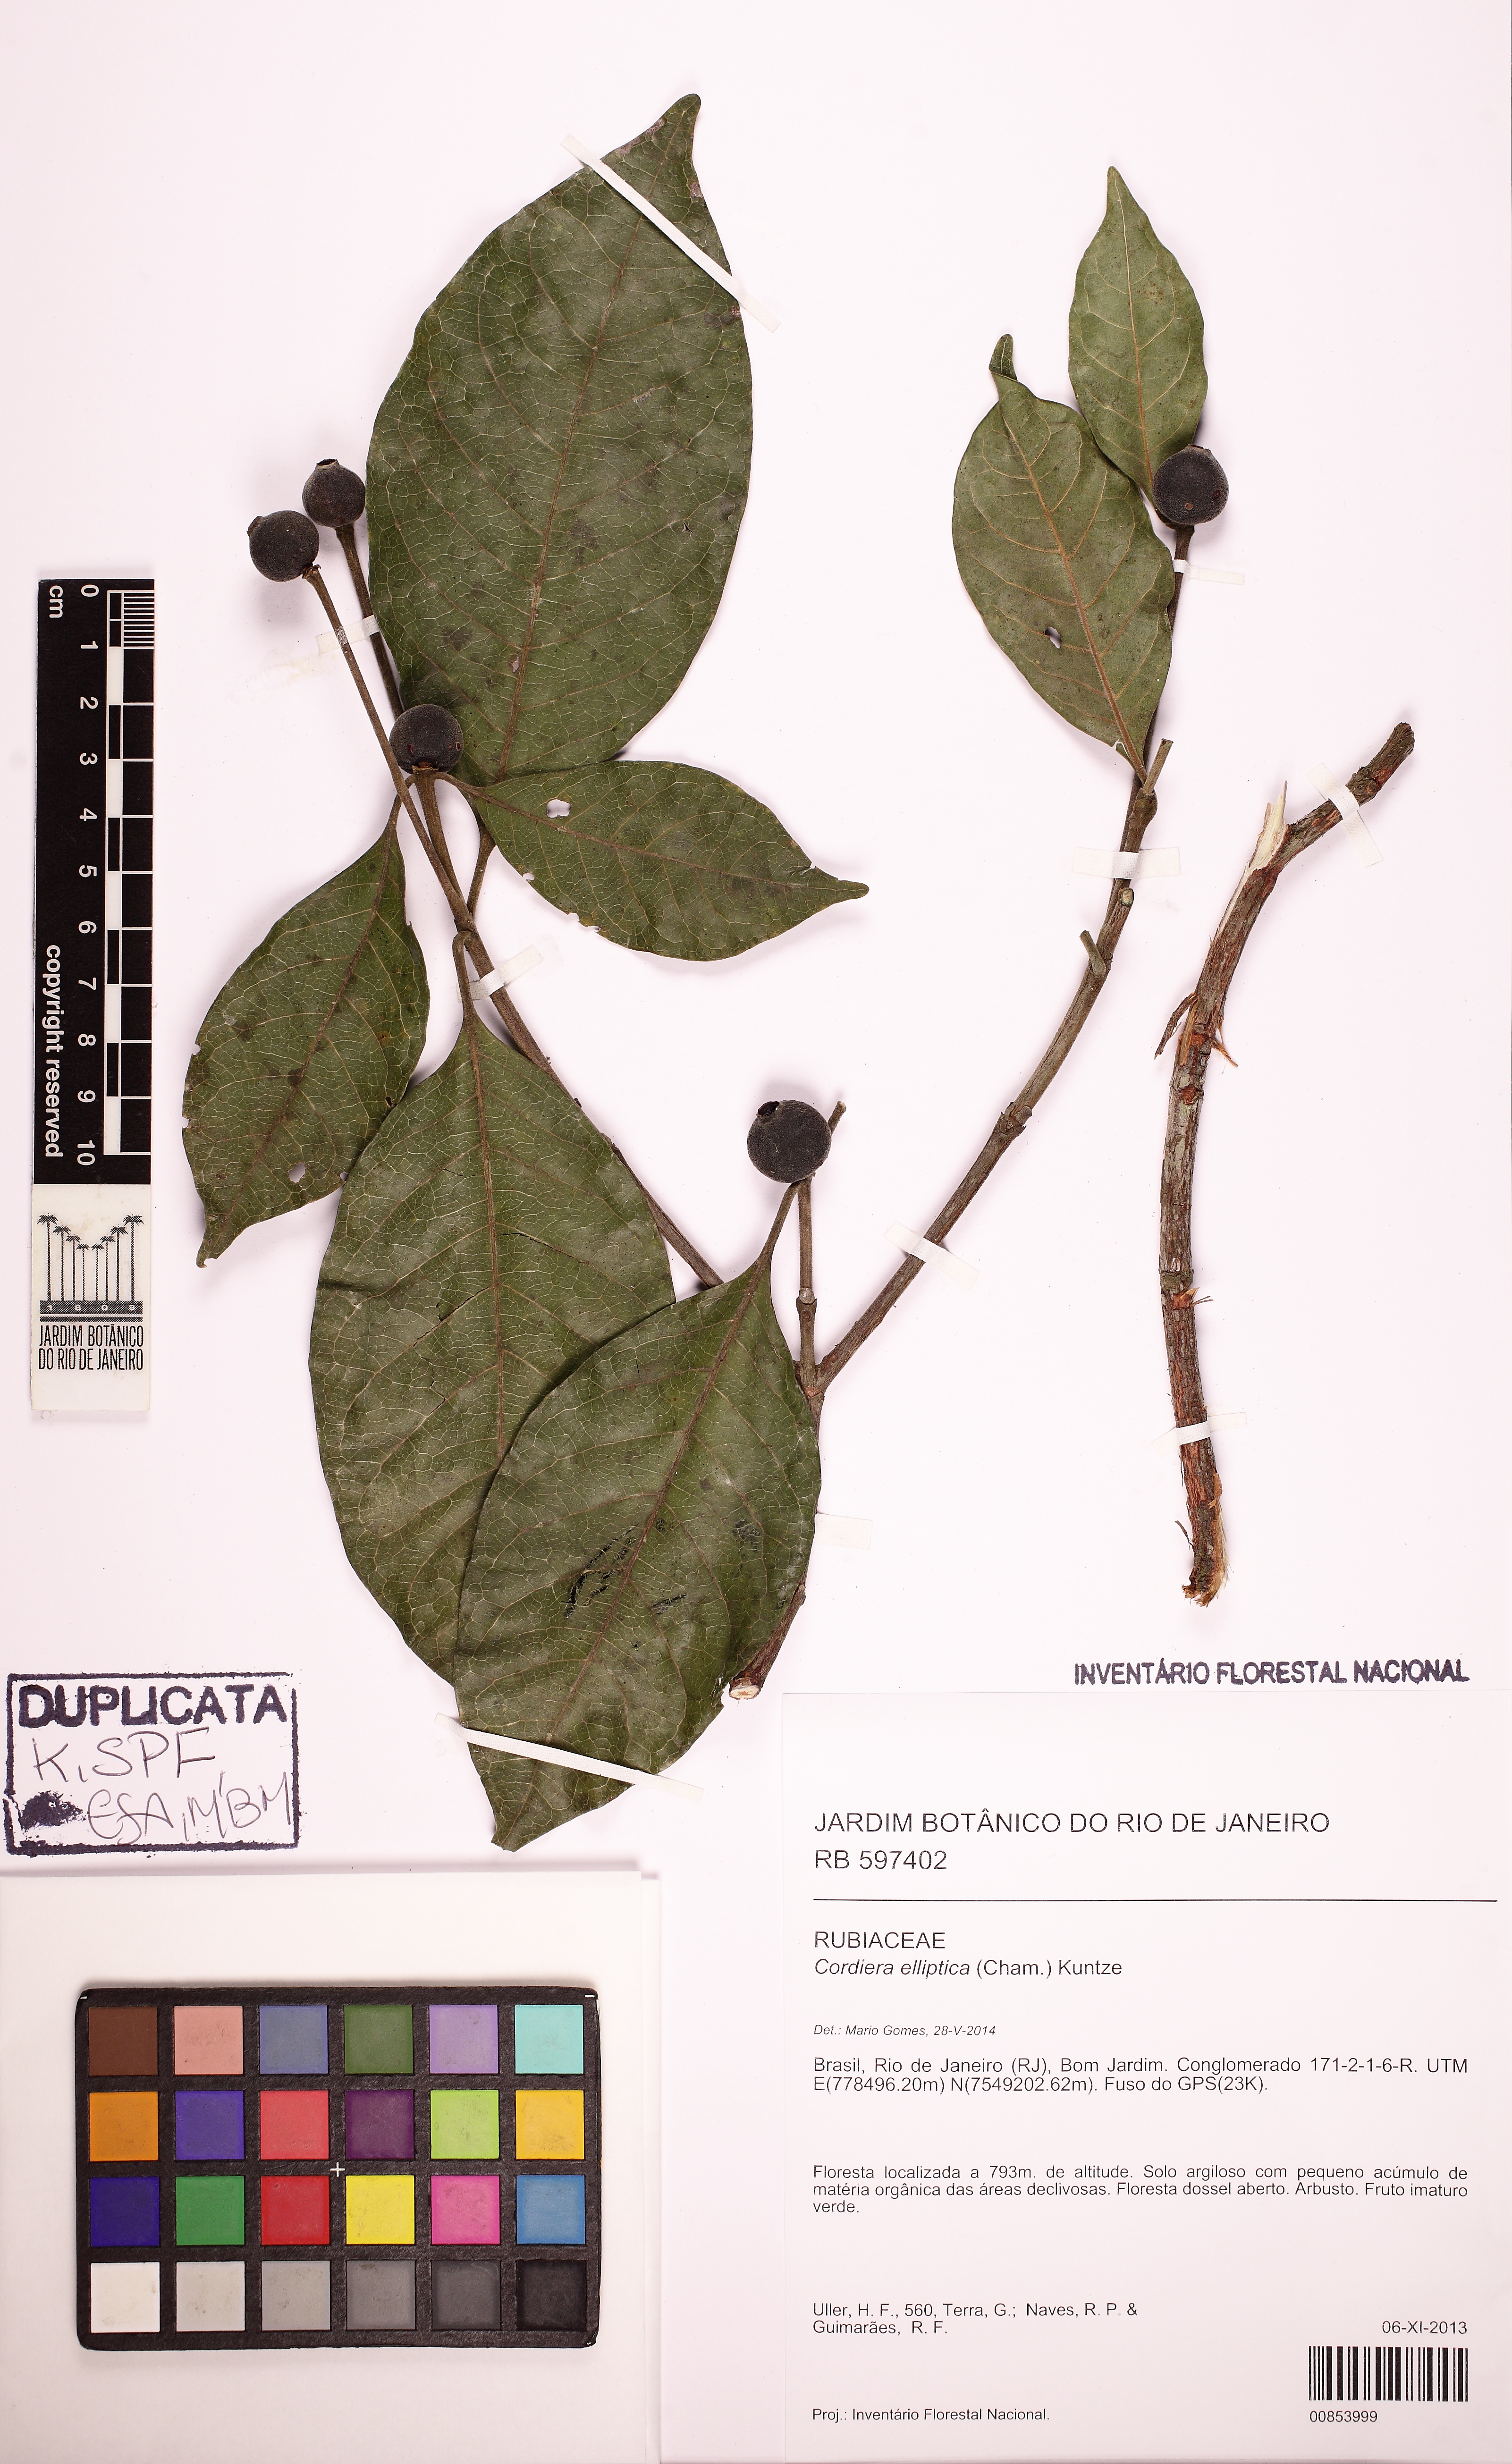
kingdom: Plantae
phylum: Tracheophyta
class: Magnoliopsida
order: Gentianales
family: Rubiaceae
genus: Cordiera
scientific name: Cordiera elliptica
